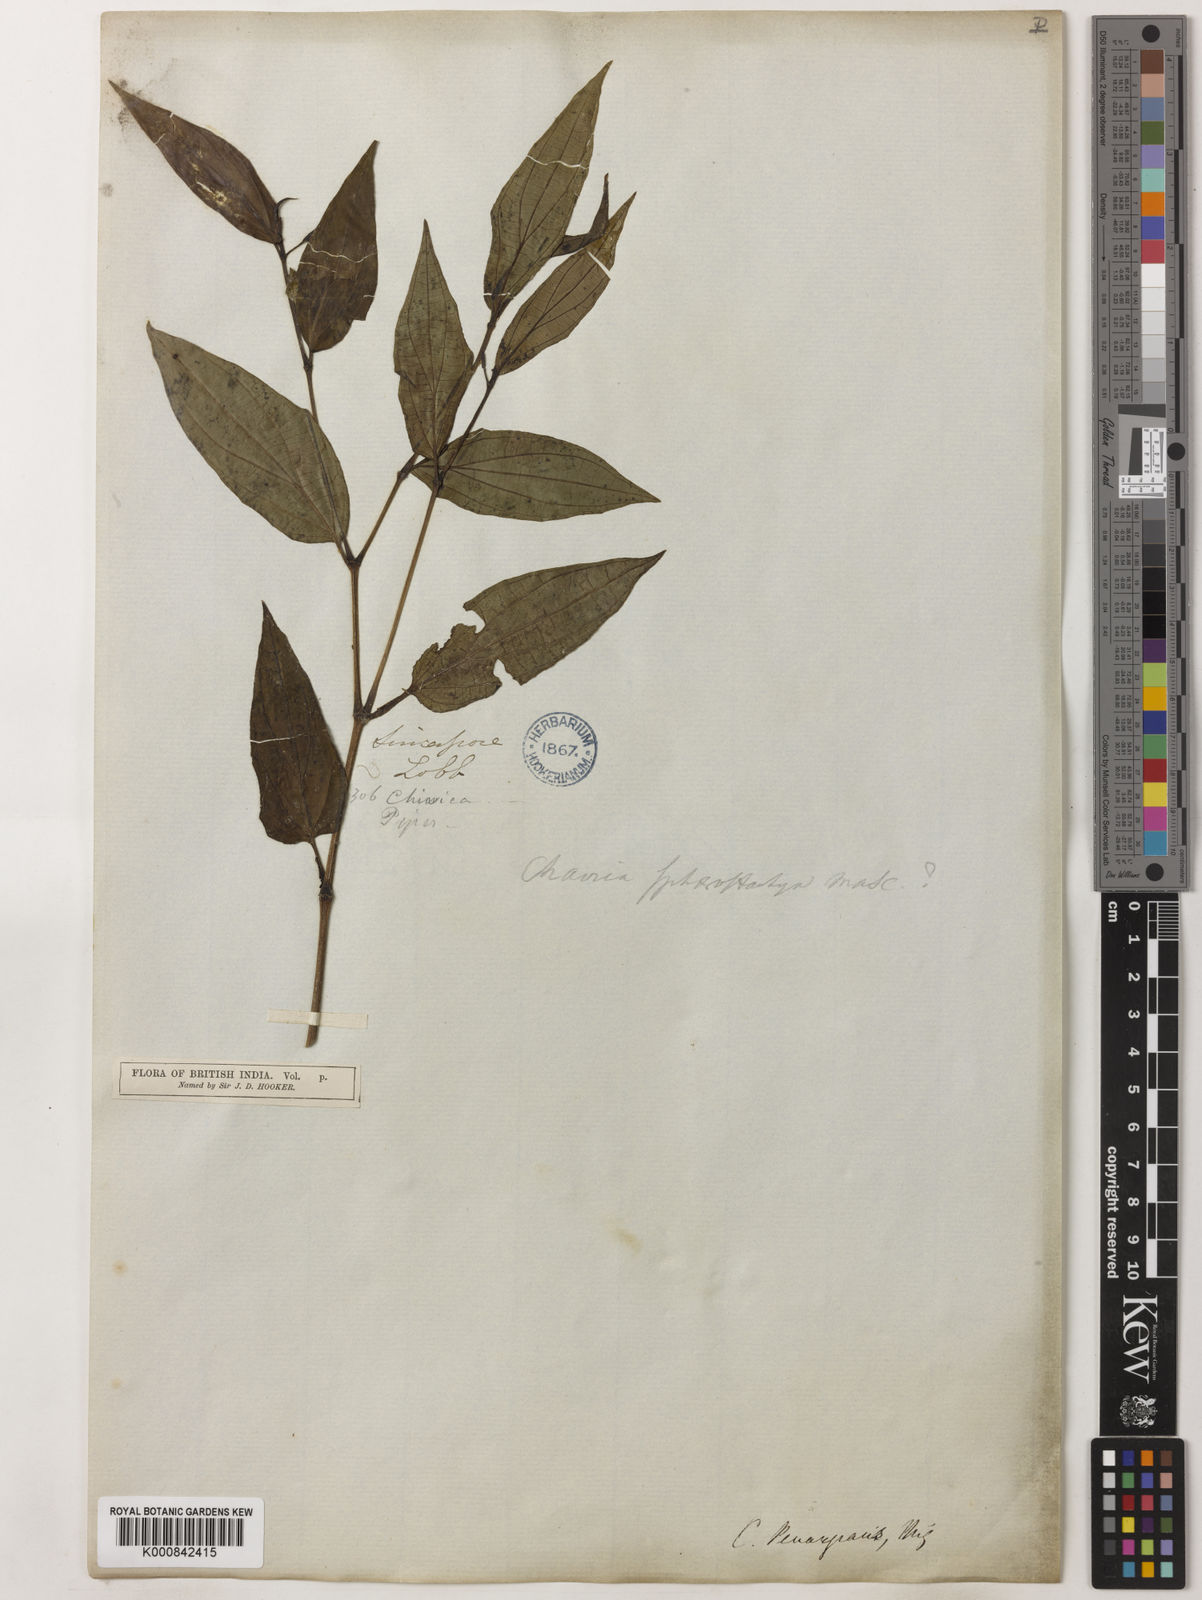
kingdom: Plantae
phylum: Tracheophyta
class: Magnoliopsida
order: Piperales
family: Piperaceae
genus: Piper
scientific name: Piper penangense
